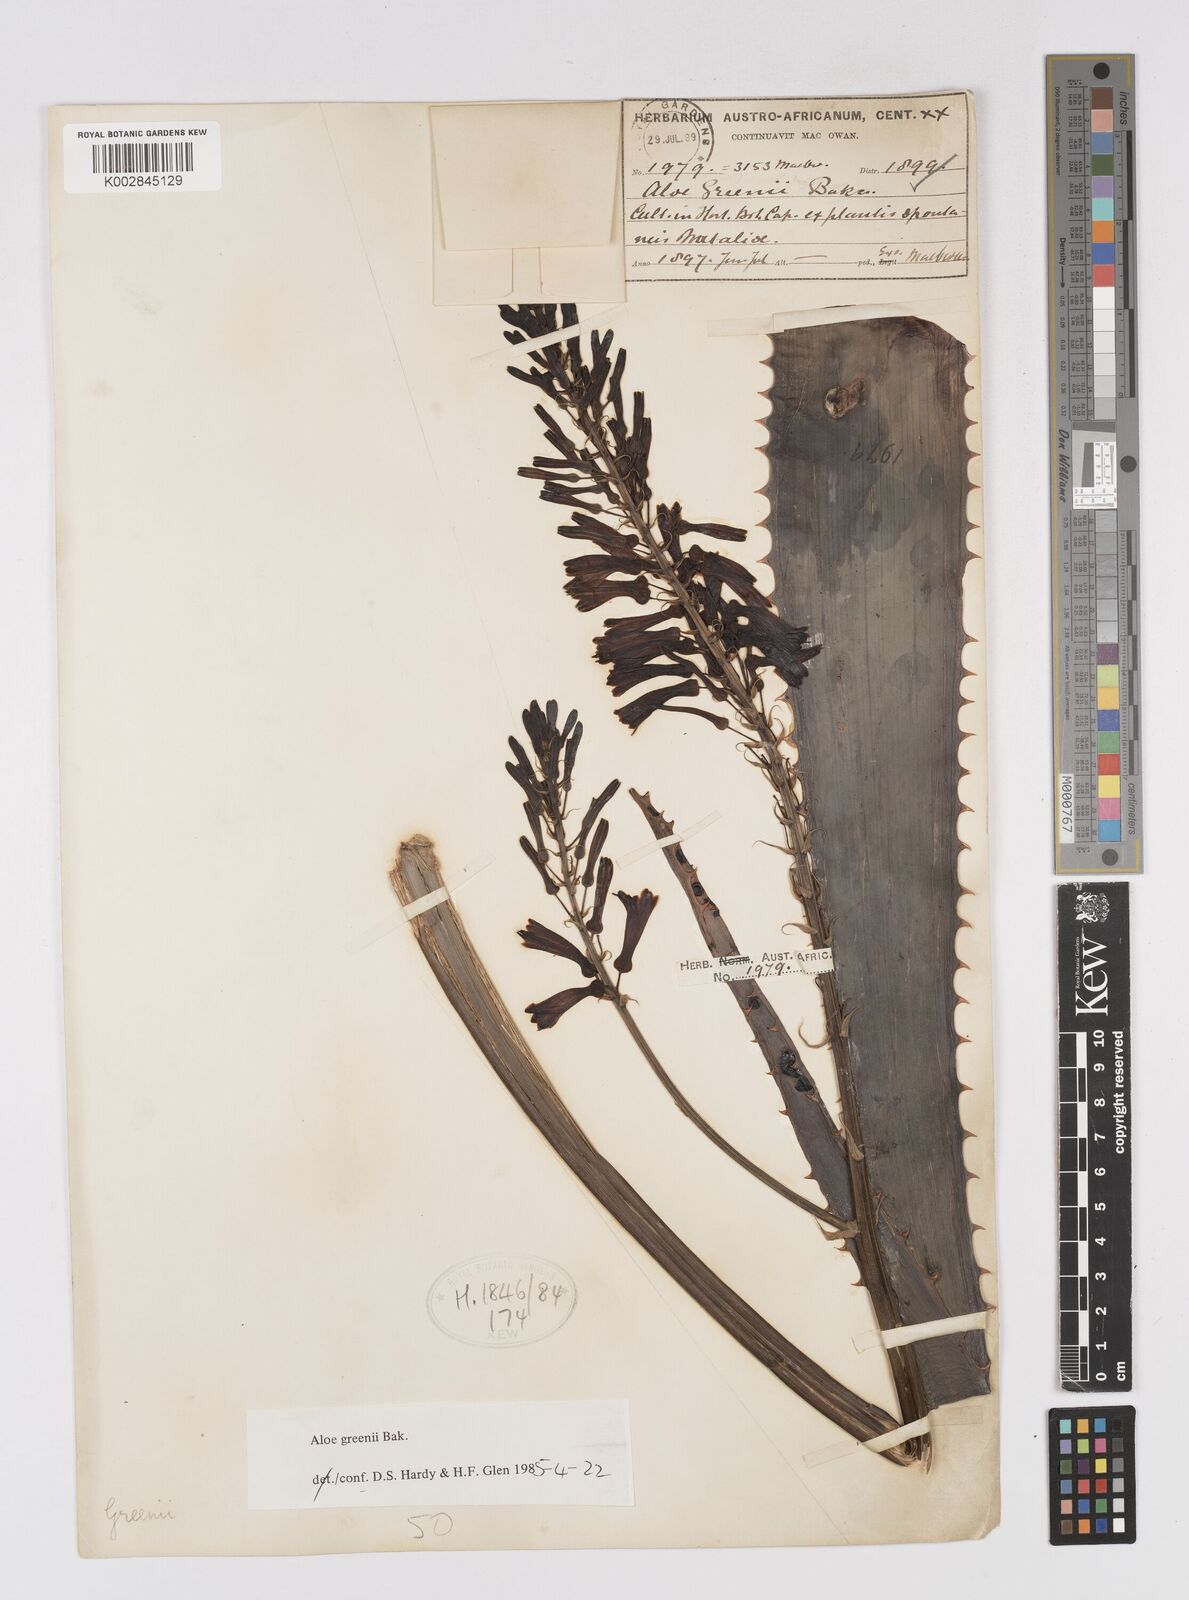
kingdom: Plantae
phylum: Tracheophyta
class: Liliopsida
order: Asparagales
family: Asphodelaceae
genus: Aloe
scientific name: Aloe greenii
